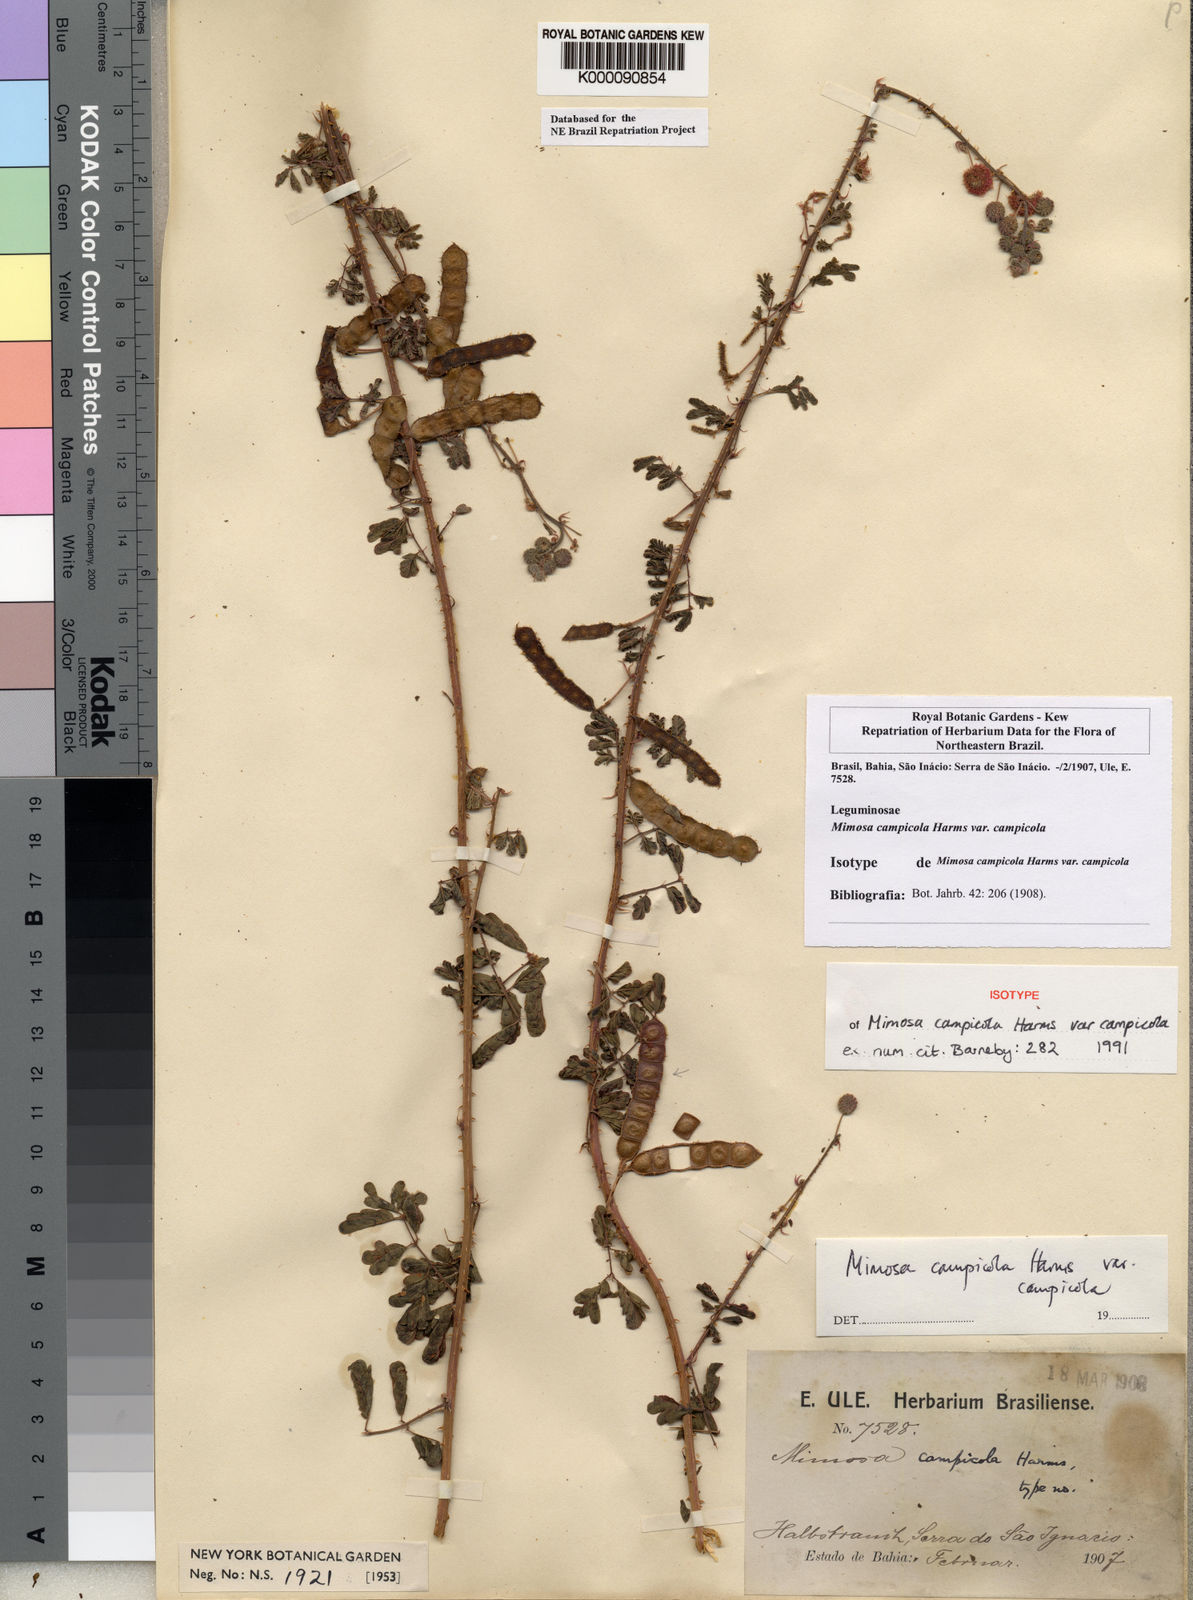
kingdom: Plantae
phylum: Tracheophyta
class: Magnoliopsida
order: Fabales
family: Fabaceae
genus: Mimosa
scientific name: Mimosa campicola
